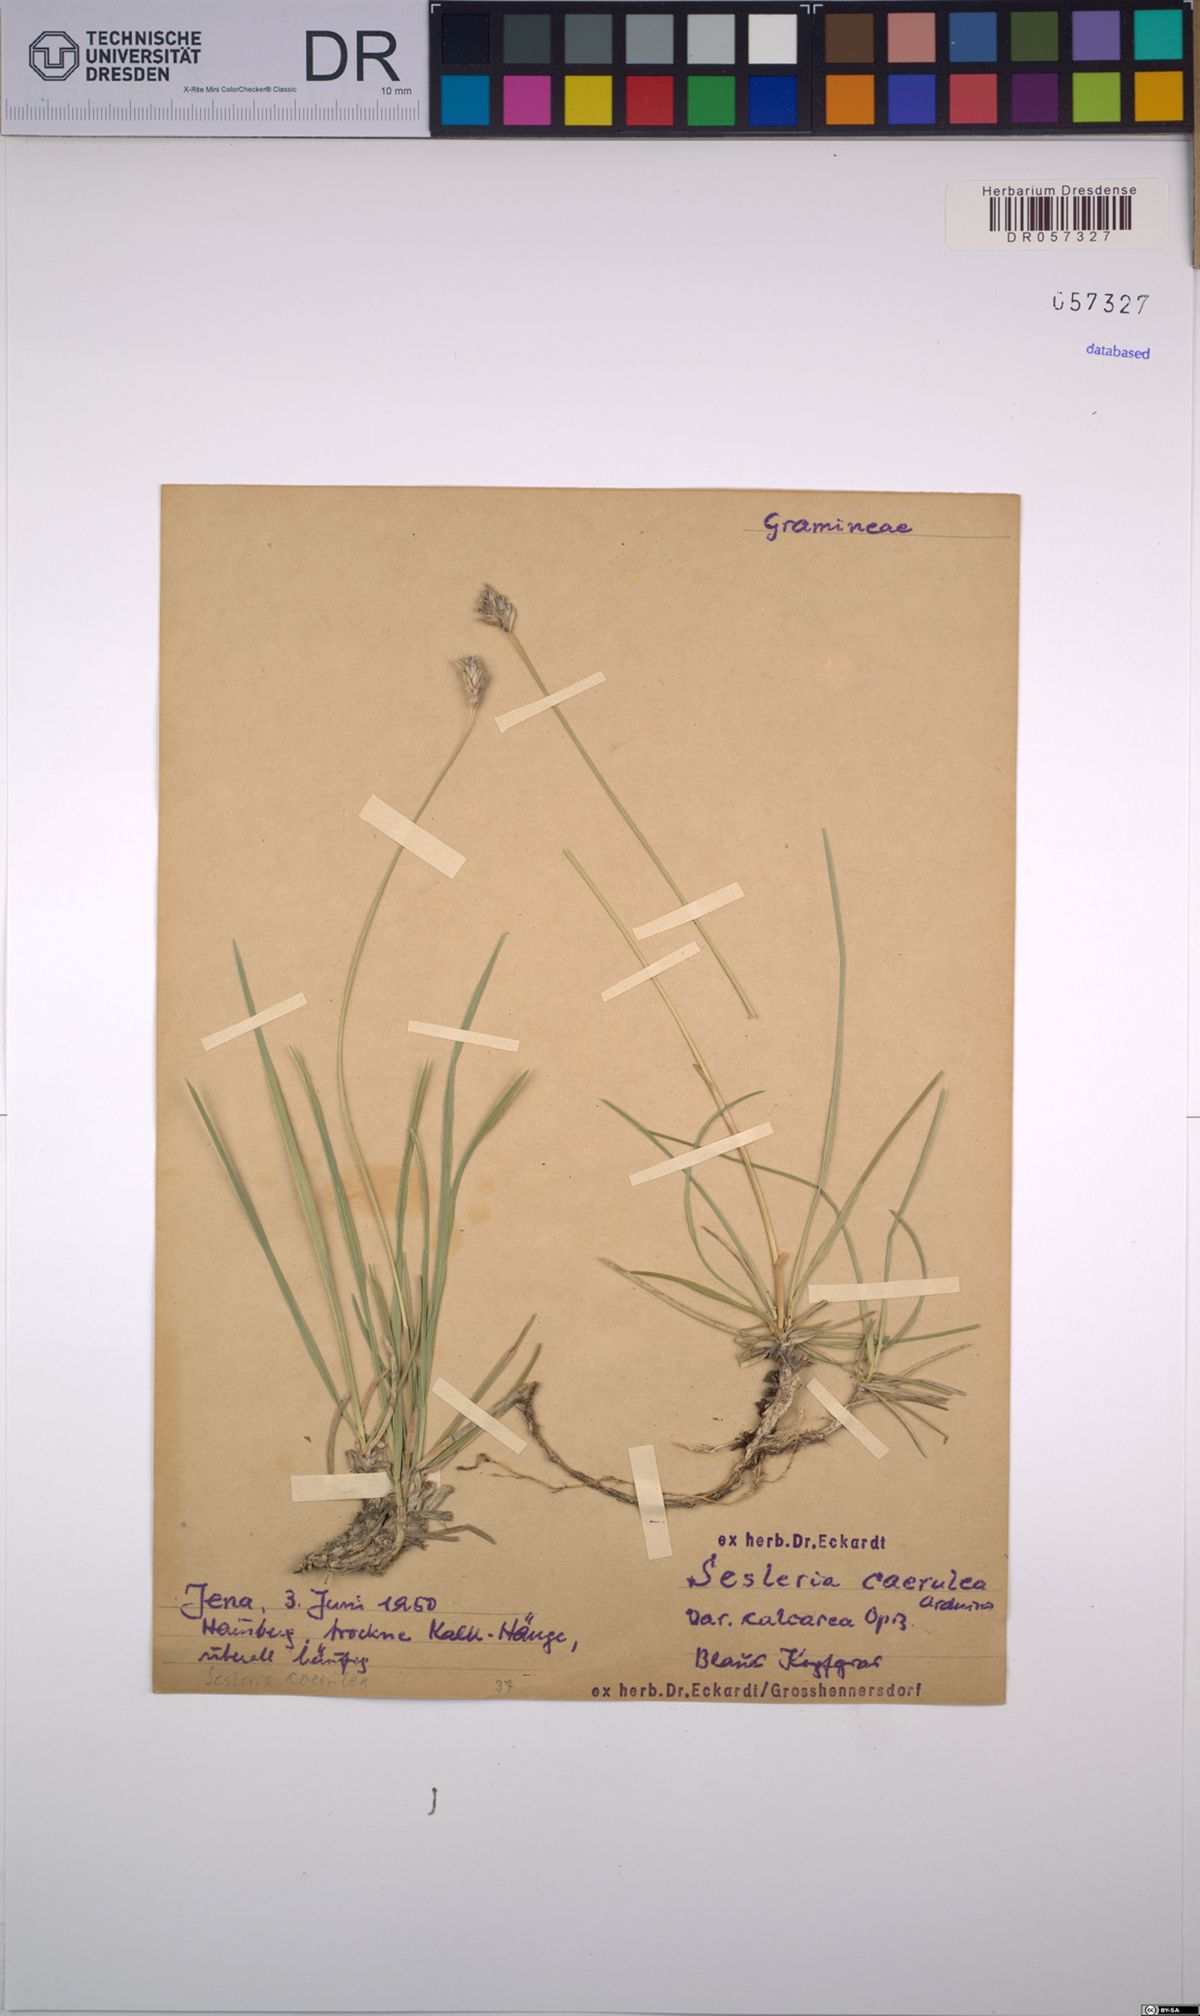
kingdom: Plantae
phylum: Tracheophyta
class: Liliopsida
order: Poales
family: Poaceae
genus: Sesleria
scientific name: Sesleria caerulea
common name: Blue moor-grass
